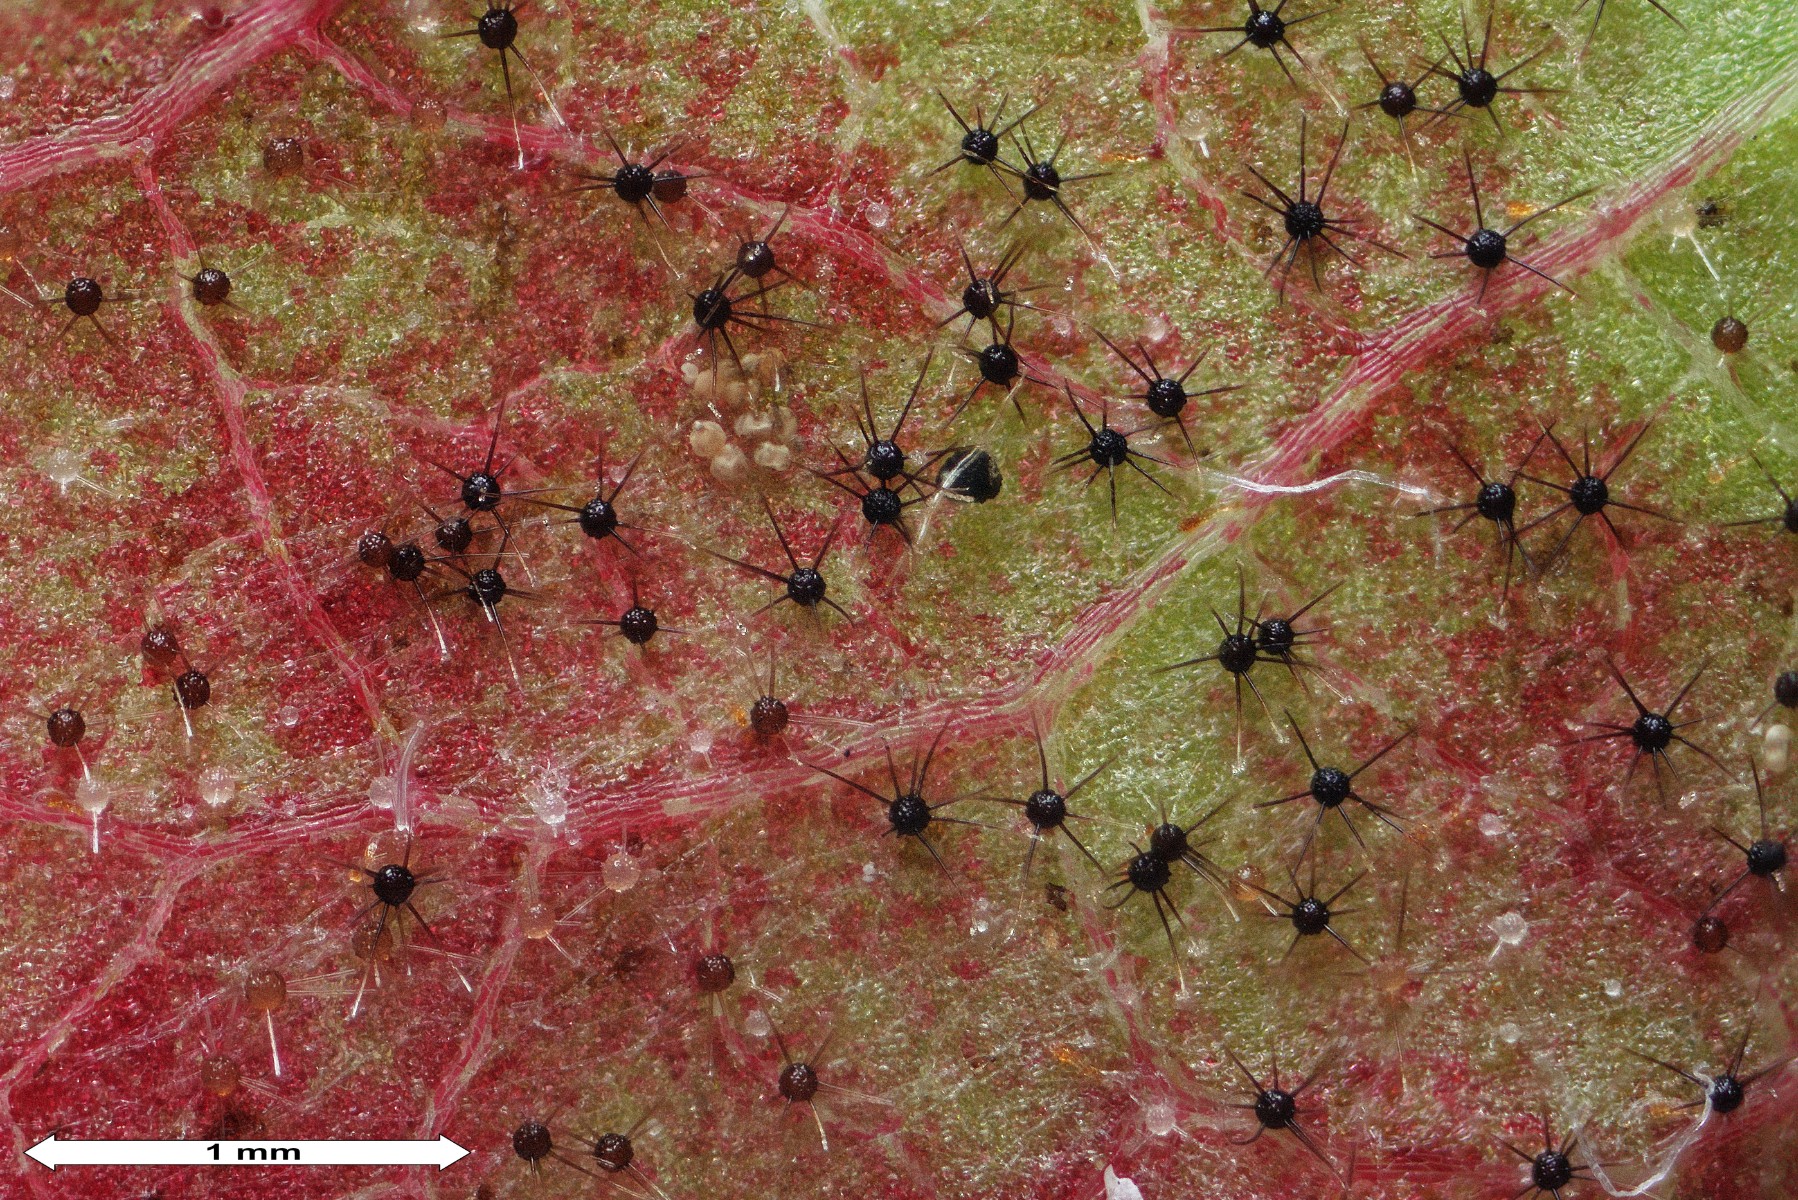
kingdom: Fungi
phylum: Ascomycota
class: Leotiomycetes
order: Helotiales
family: Erysiphaceae
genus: Podosphaera
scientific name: Podosphaera myrtillina
